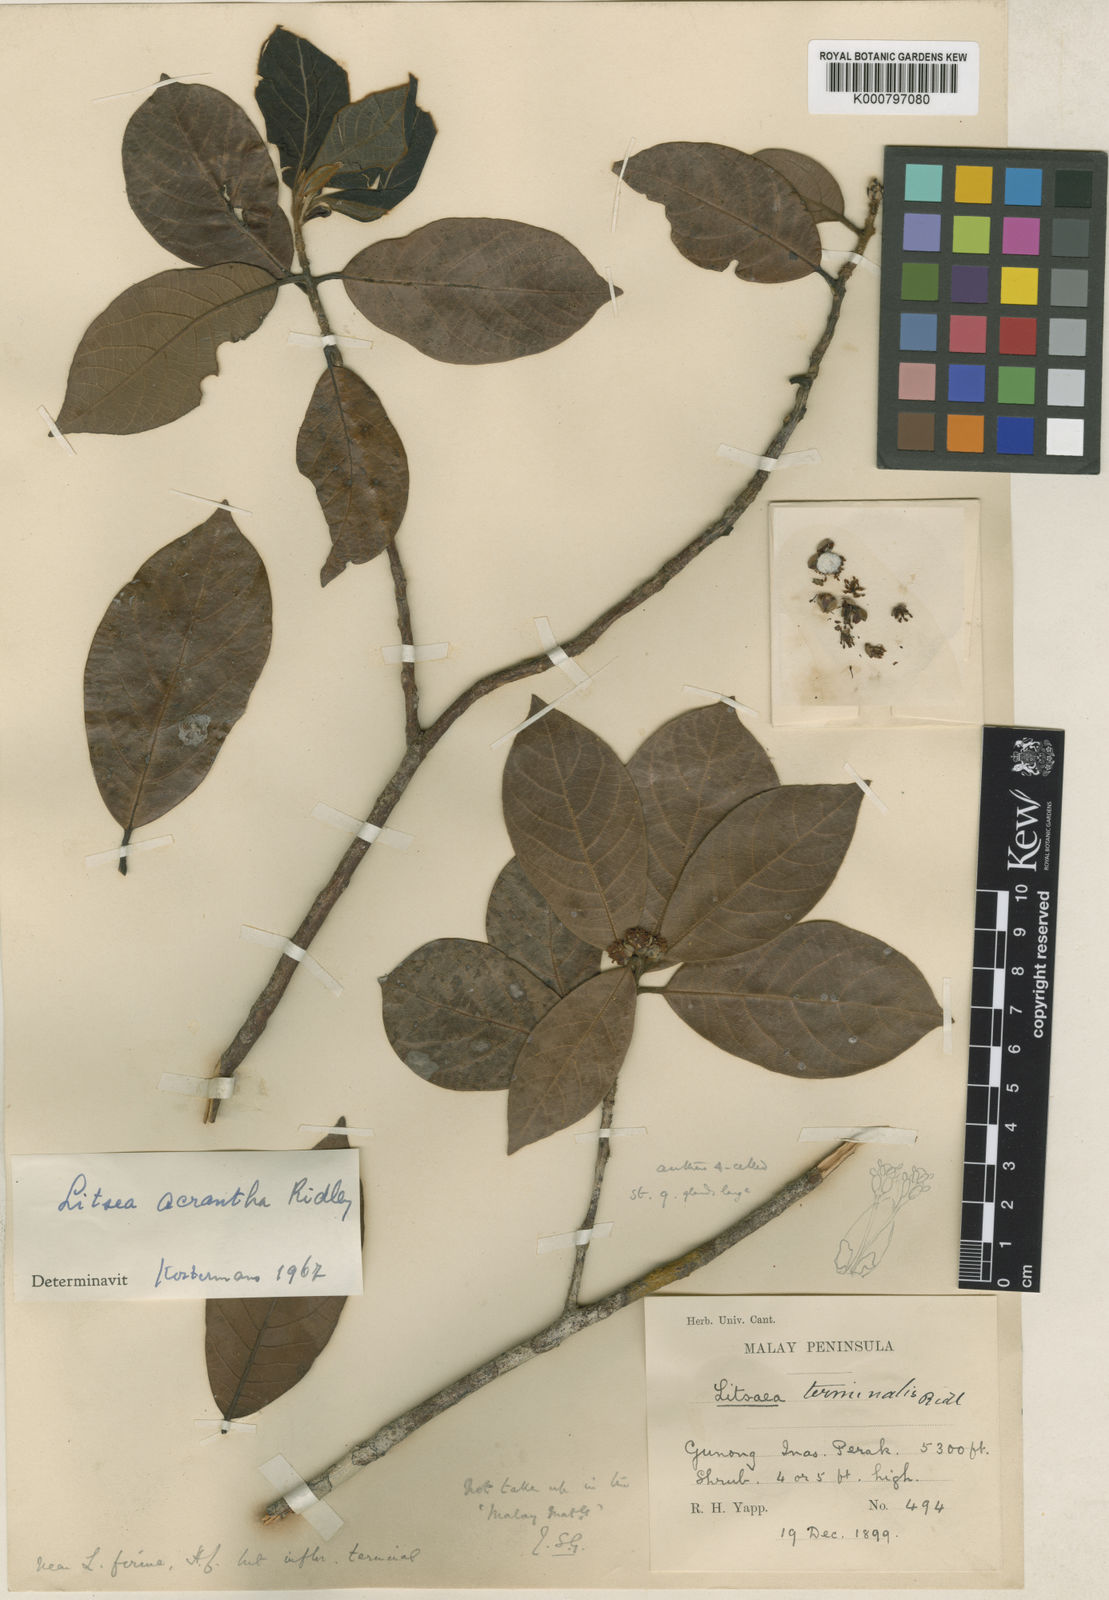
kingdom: Plantae
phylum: Tracheophyta
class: Magnoliopsida
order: Laurales
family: Lauraceae
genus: Litsea
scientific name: Litsea acrantha
